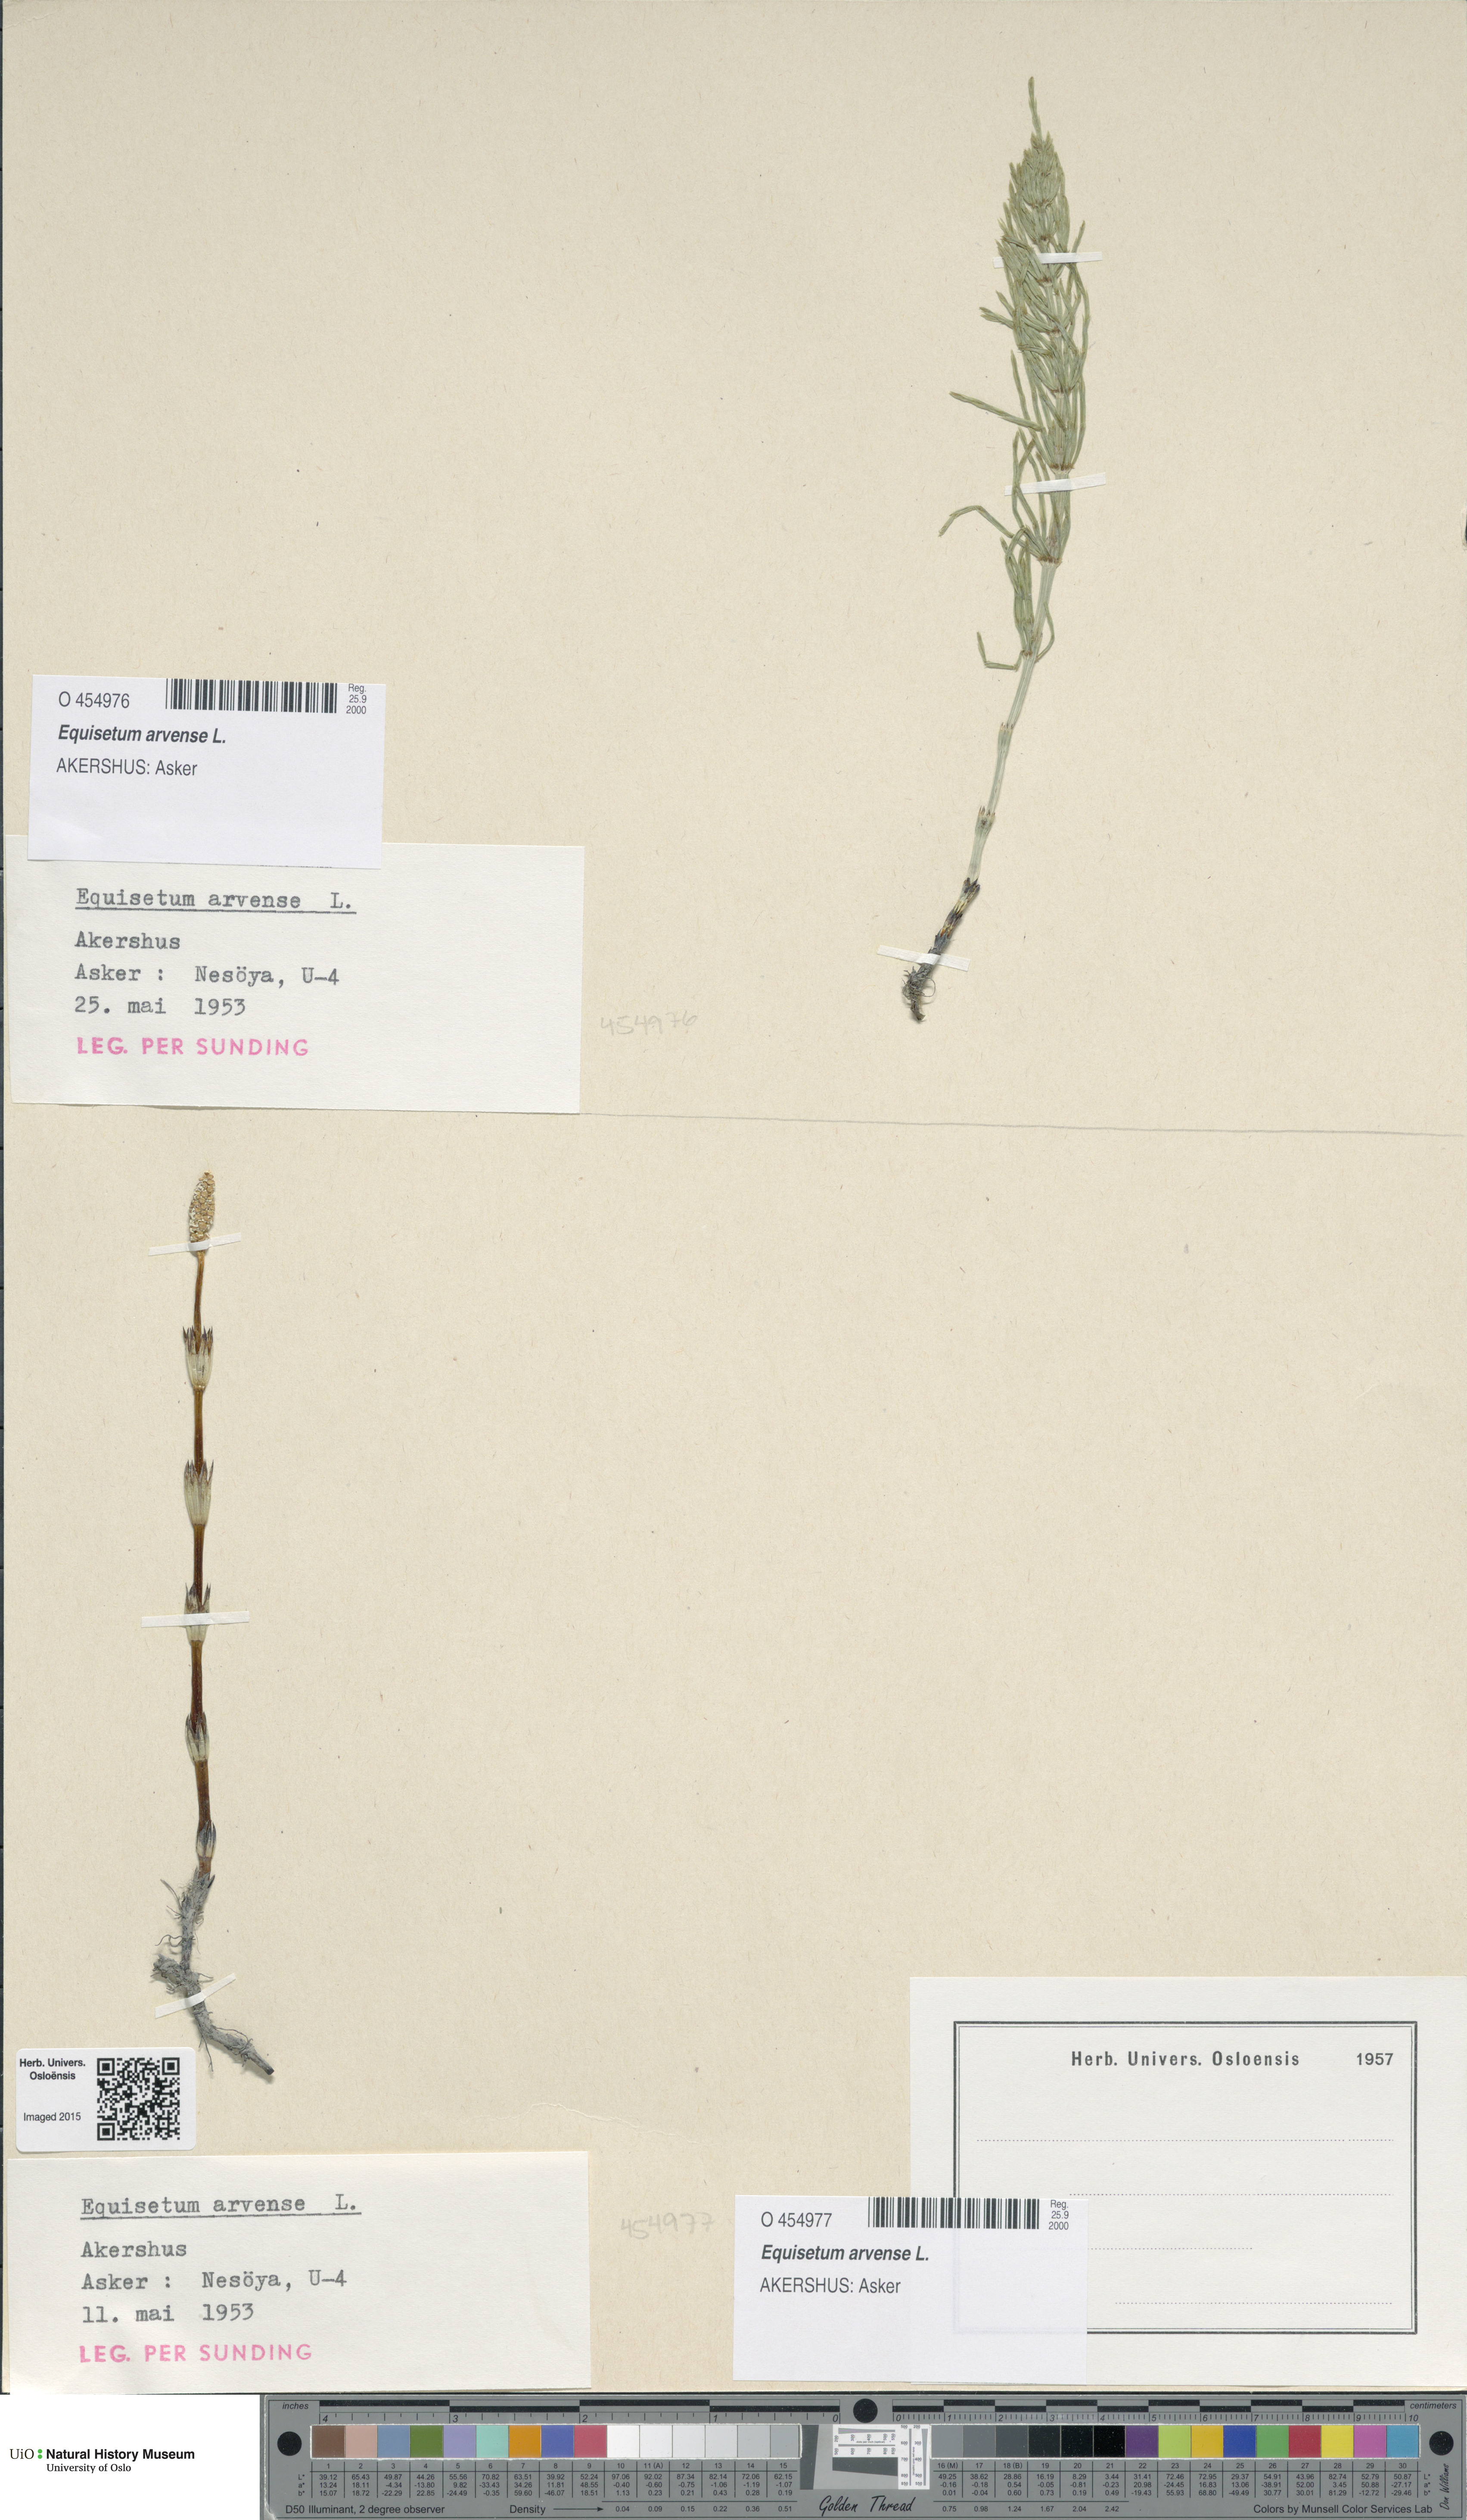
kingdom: Plantae
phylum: Tracheophyta
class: Polypodiopsida
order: Equisetales
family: Equisetaceae
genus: Equisetum
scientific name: Equisetum arvense
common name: Field horsetail
